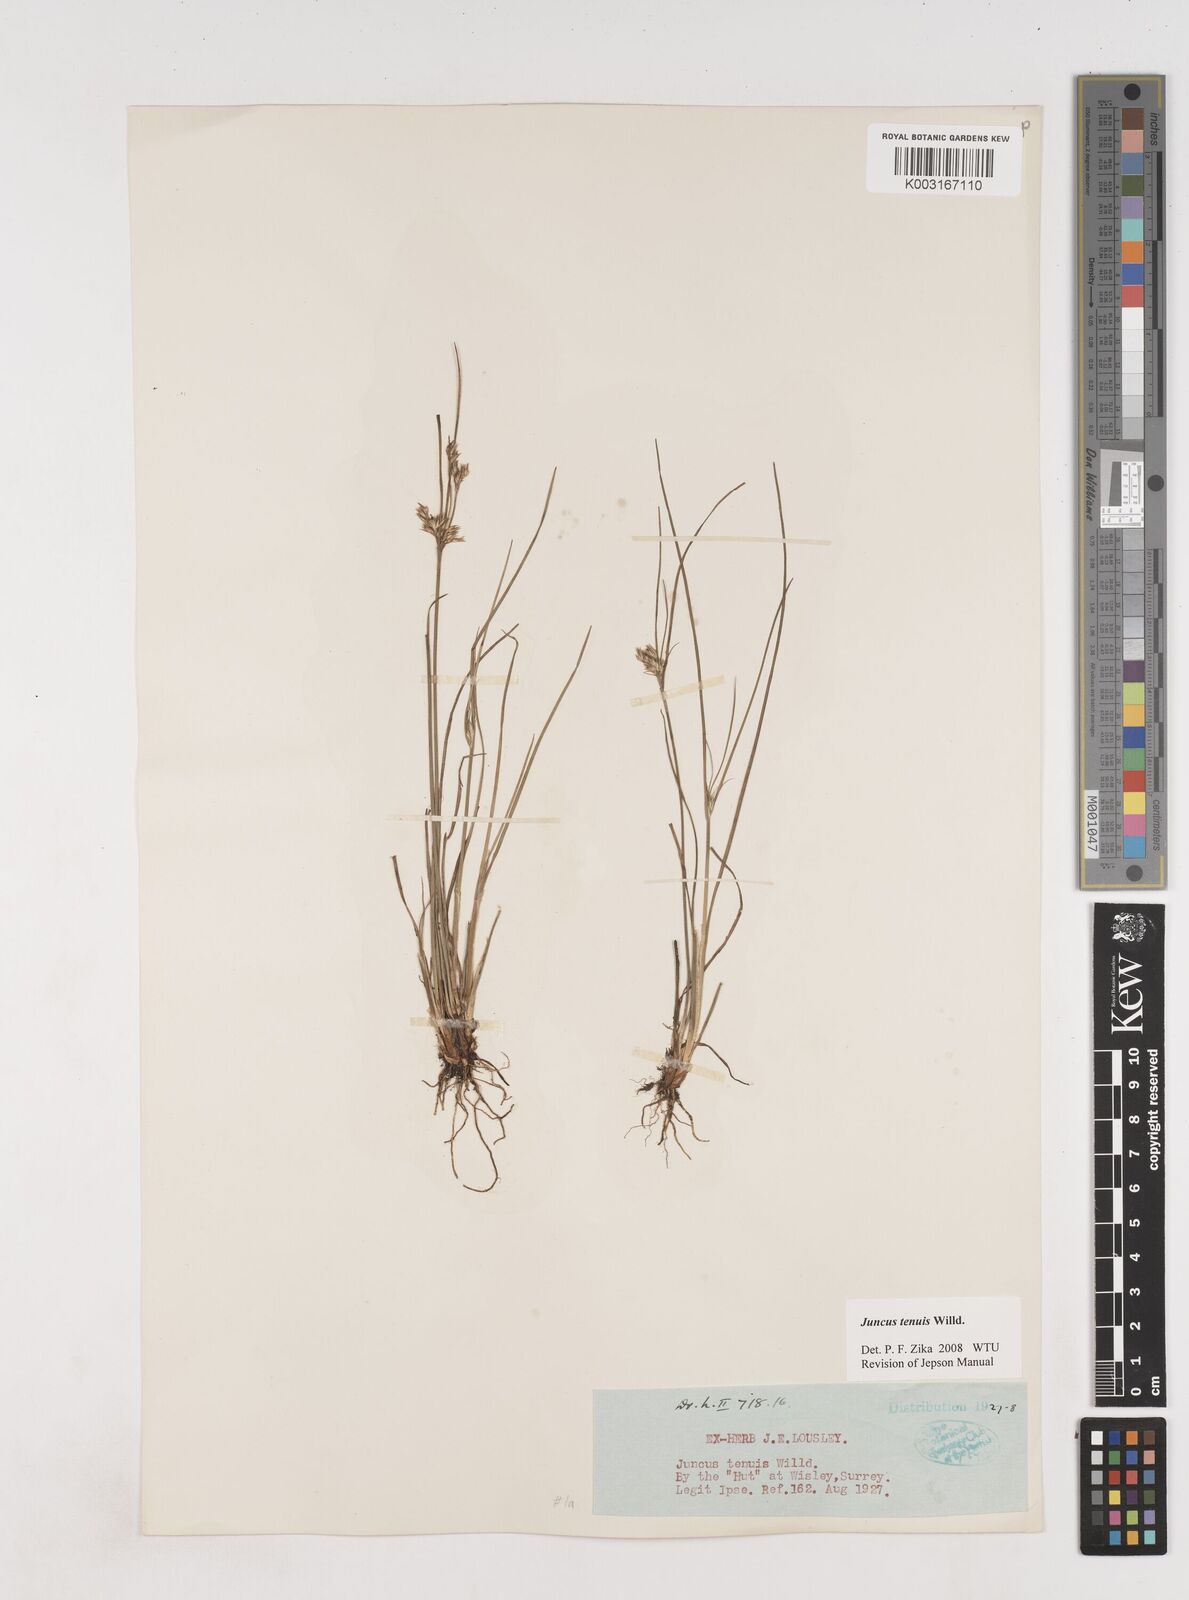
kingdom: Plantae
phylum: Tracheophyta
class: Liliopsida
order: Poales
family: Juncaceae
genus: Juncus
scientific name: Juncus occidentalis
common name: Western rush
